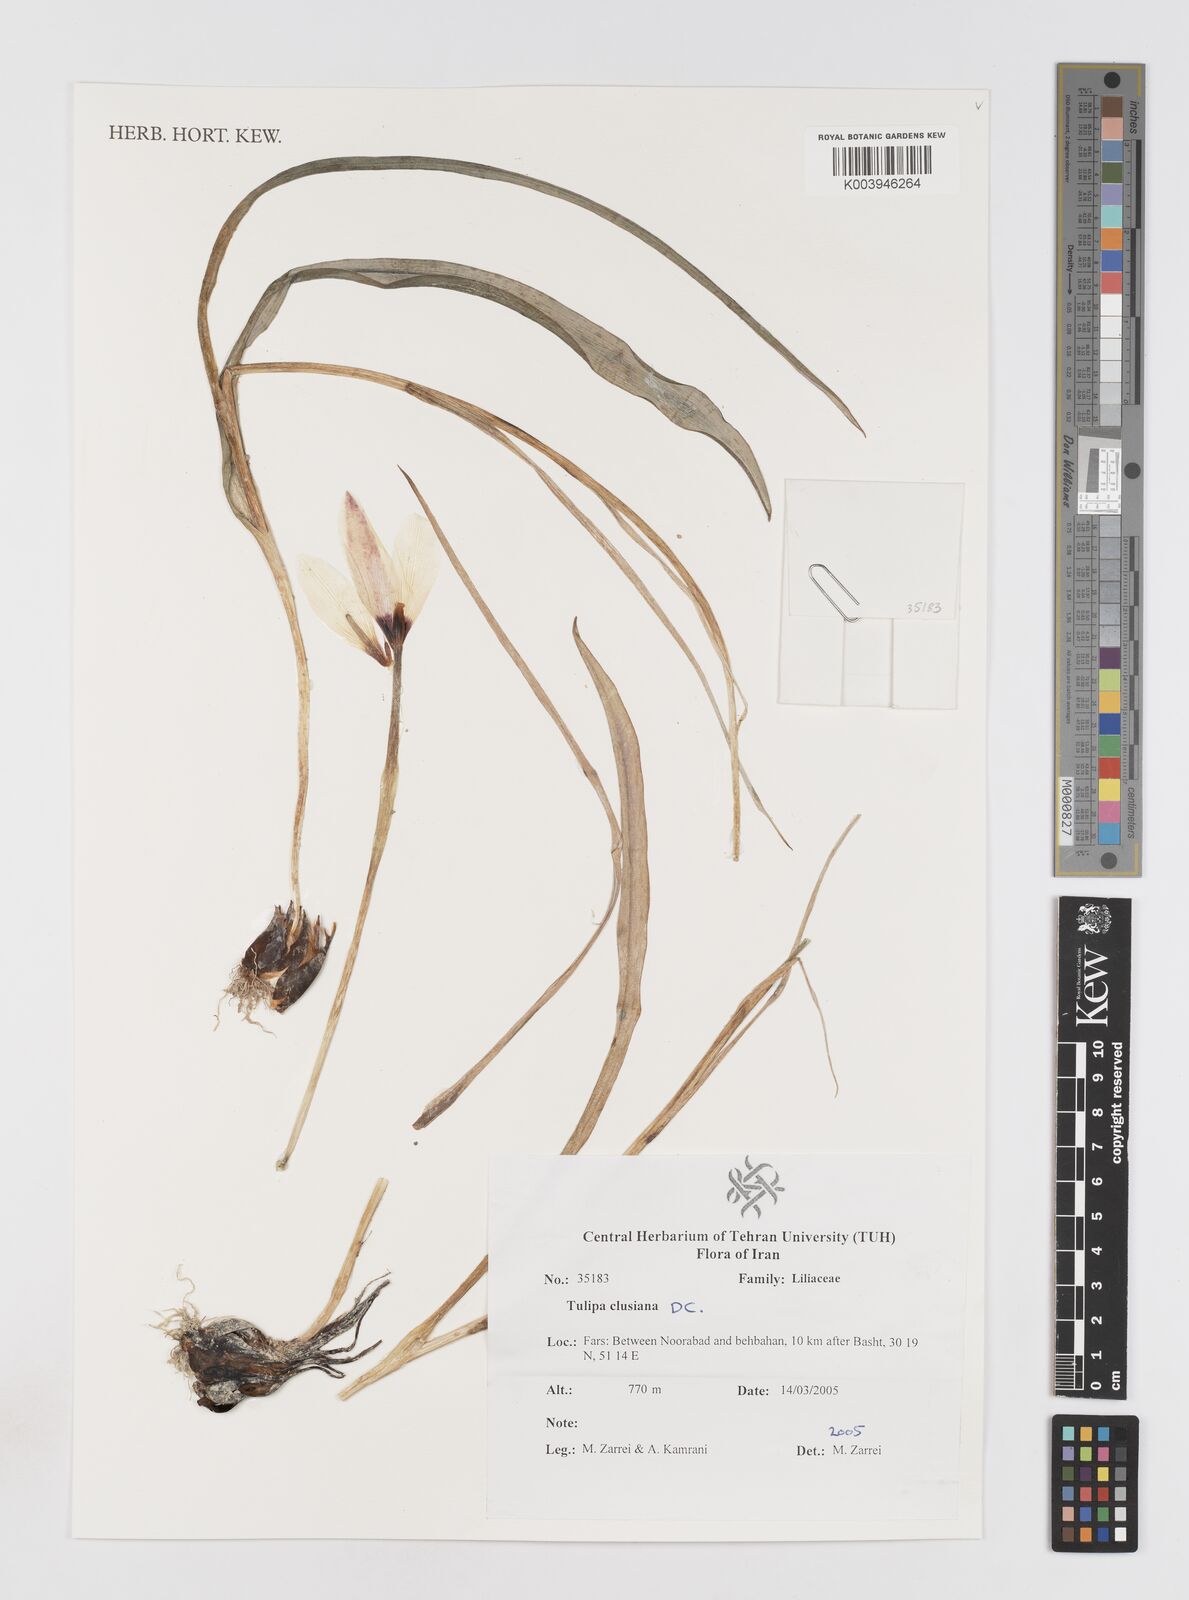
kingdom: Plantae
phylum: Tracheophyta
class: Liliopsida
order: Liliales
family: Liliaceae
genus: Tulipa
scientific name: Tulipa clusiana
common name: Lady tulip
